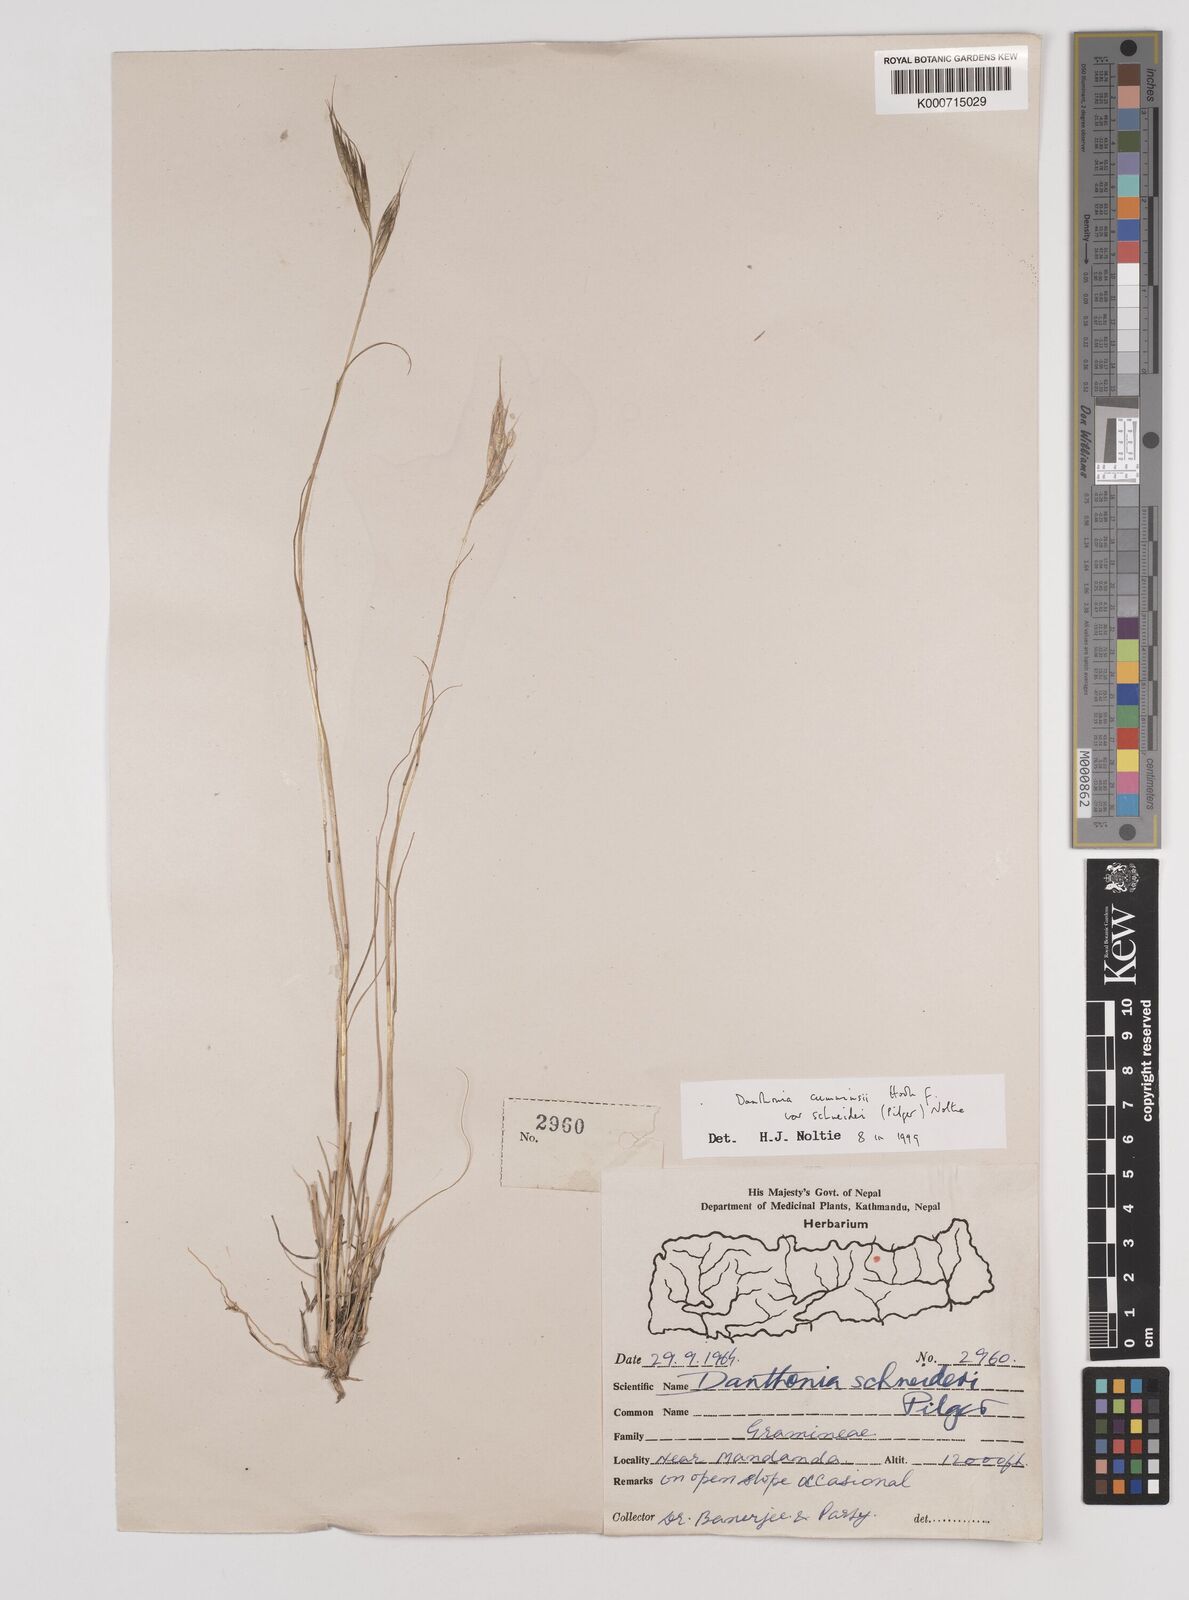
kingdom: Plantae
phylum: Tracheophyta
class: Liliopsida
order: Poales
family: Poaceae
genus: Rytidosperma
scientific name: Rytidosperma
